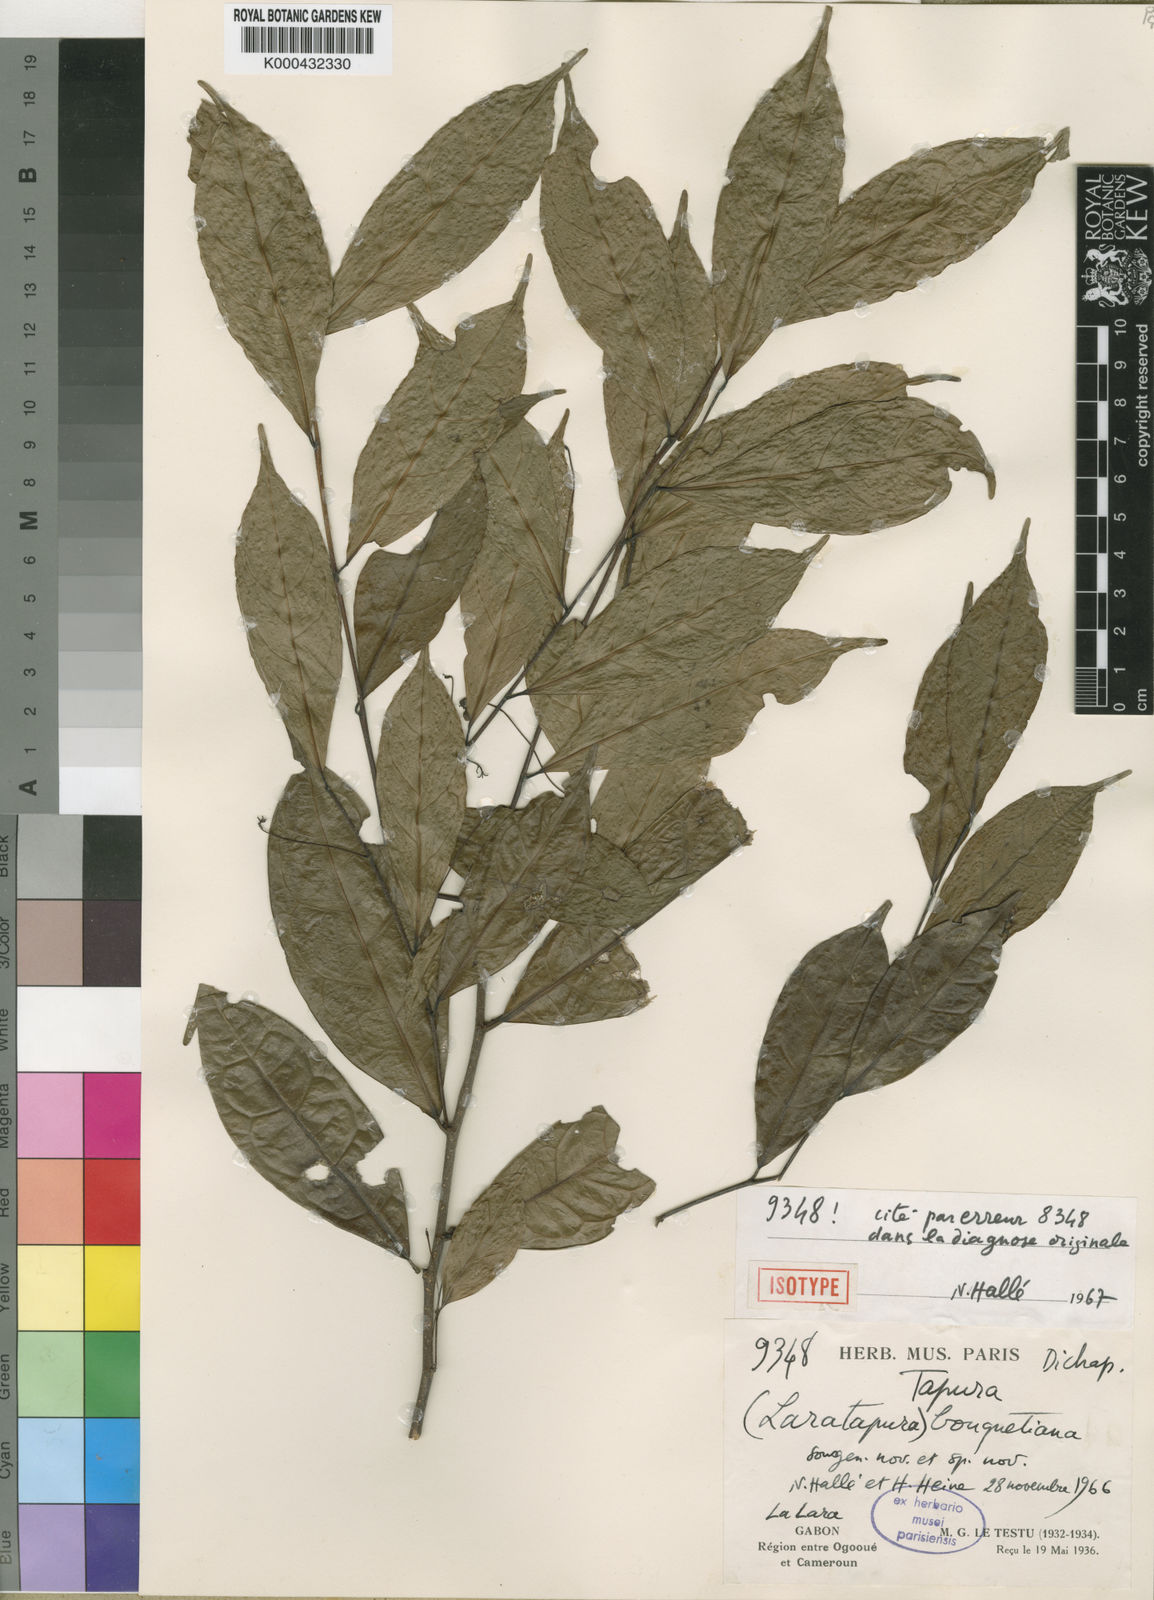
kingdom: Plantae
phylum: Tracheophyta
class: Magnoliopsida
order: Malpighiales
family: Dichapetalaceae
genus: Tapura
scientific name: Tapura
